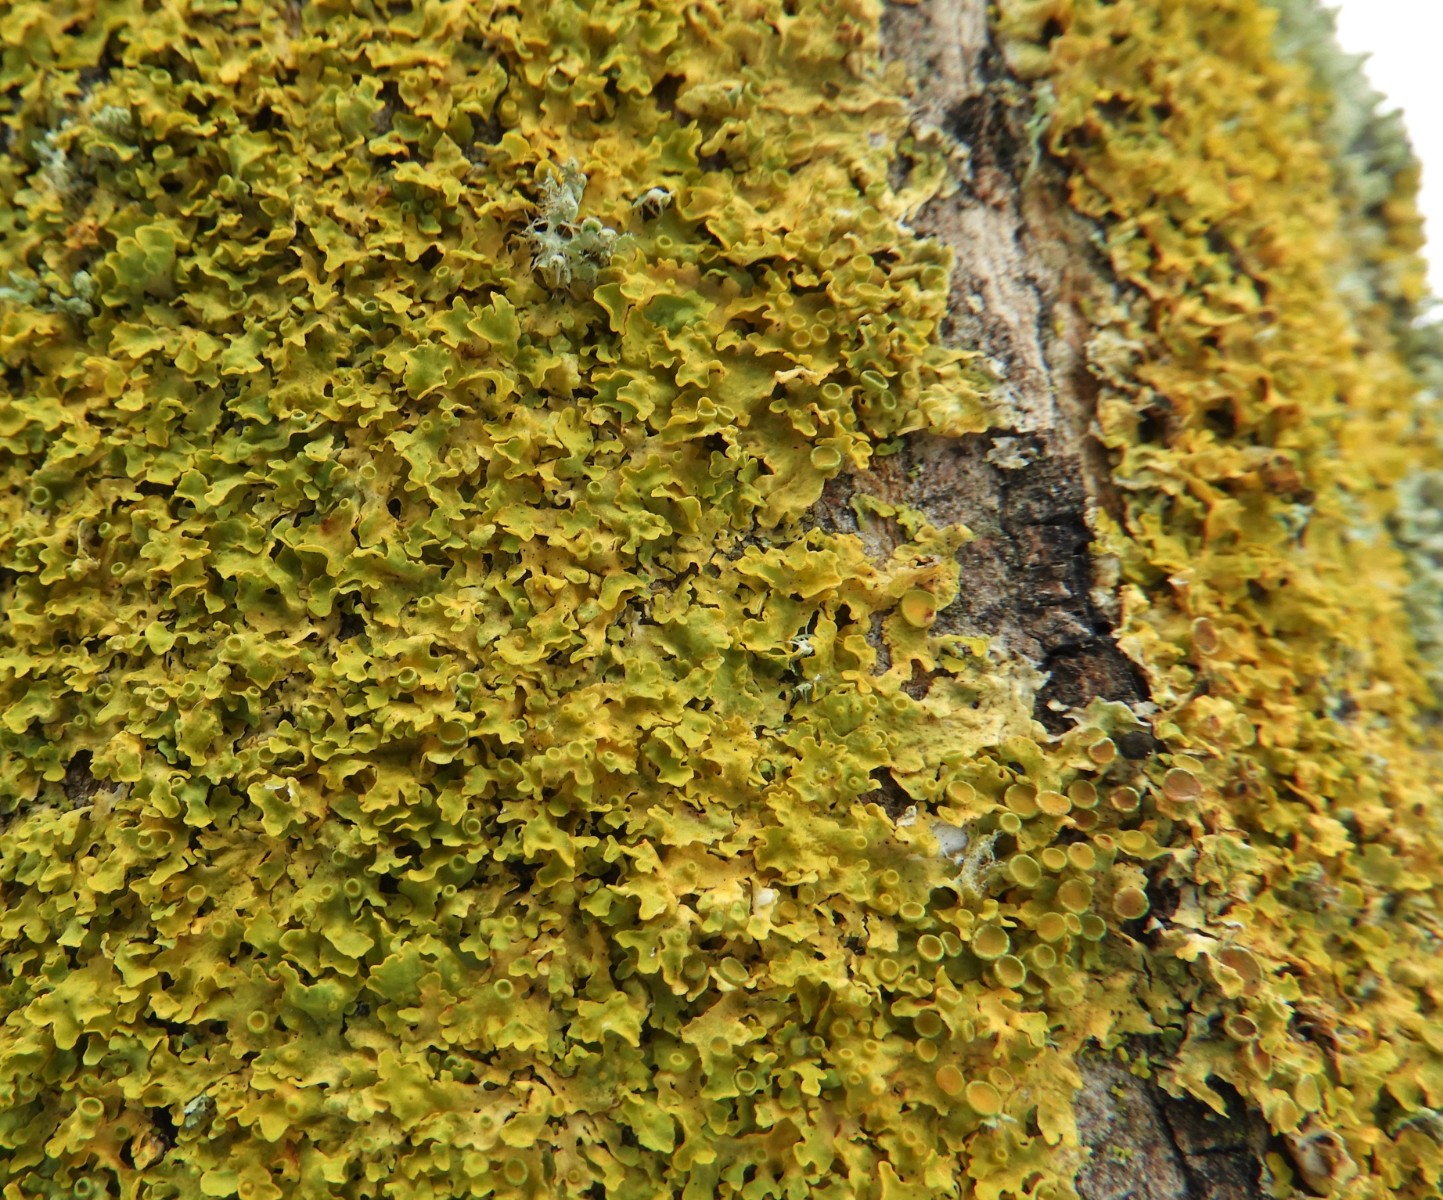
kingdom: Fungi
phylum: Ascomycota
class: Lecanoromycetes
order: Teloschistales
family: Teloschistaceae
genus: Xanthoria
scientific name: Xanthoria parietina
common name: almindelig væggelav
